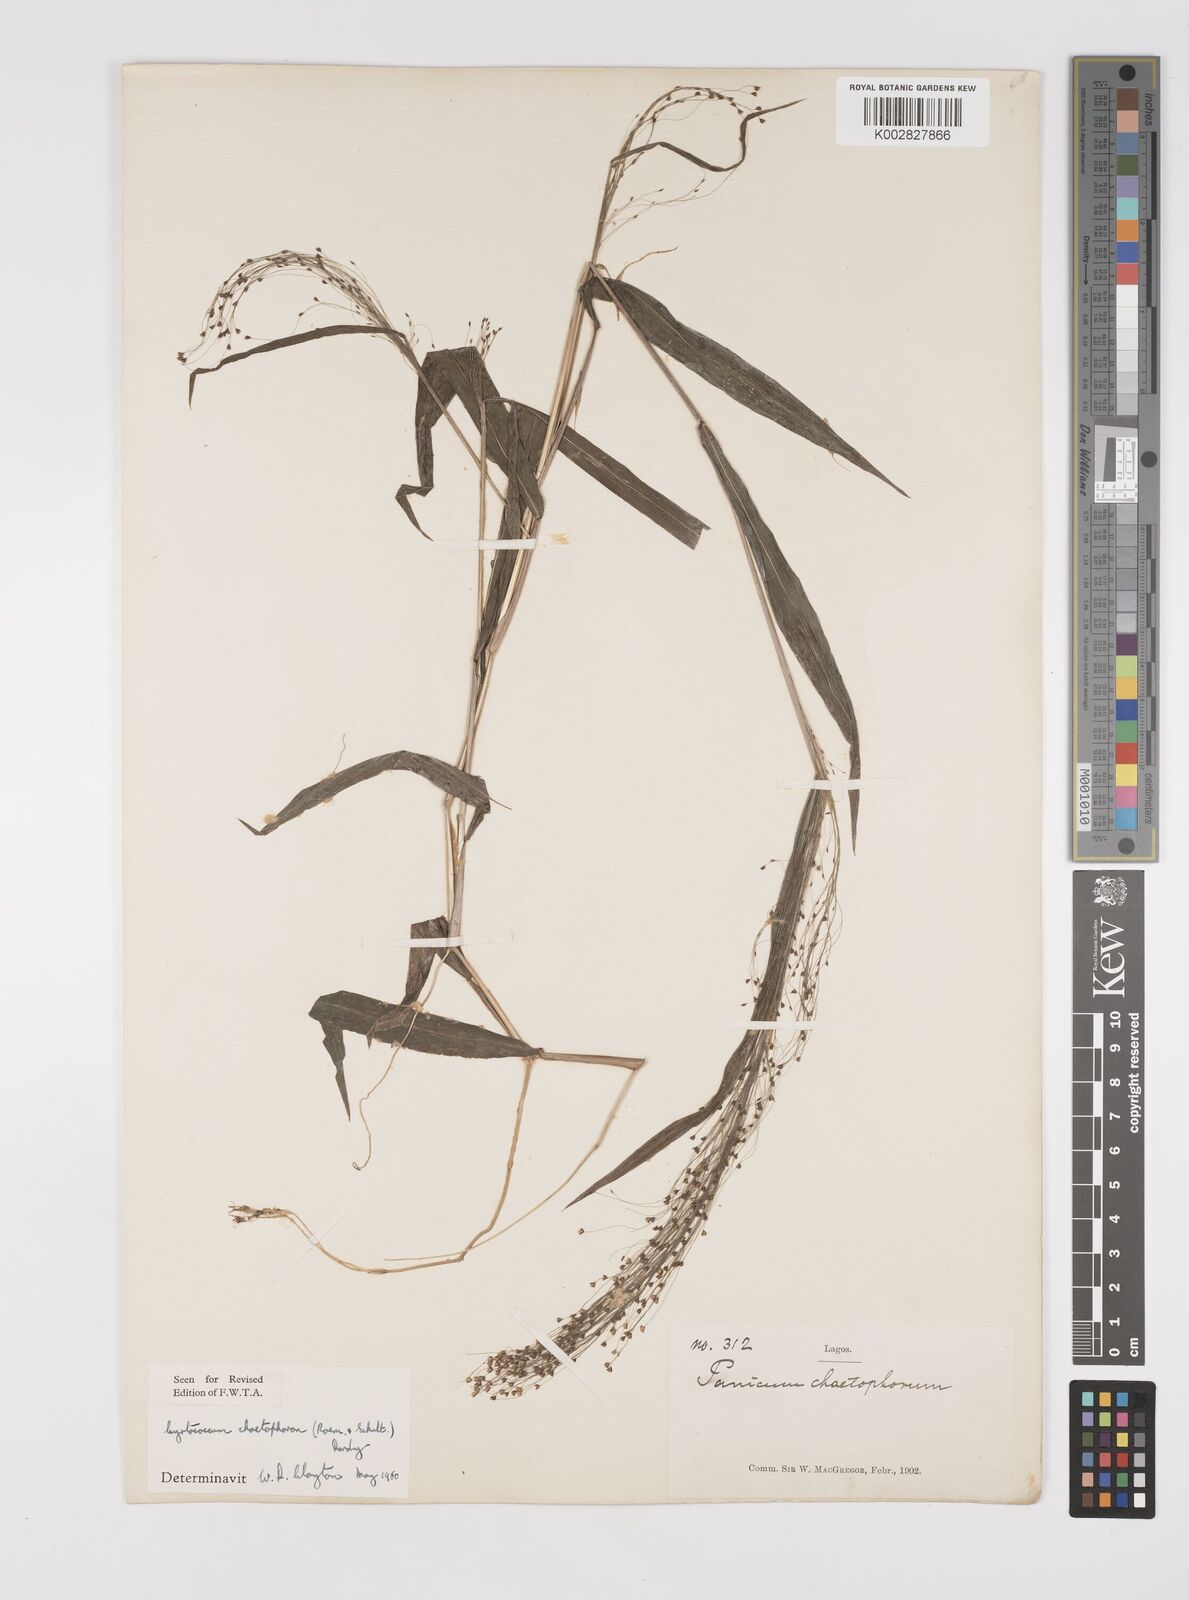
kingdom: Plantae
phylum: Tracheophyta
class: Liliopsida
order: Poales
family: Poaceae
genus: Cyrtococcum
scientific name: Cyrtococcum chaetophoron
